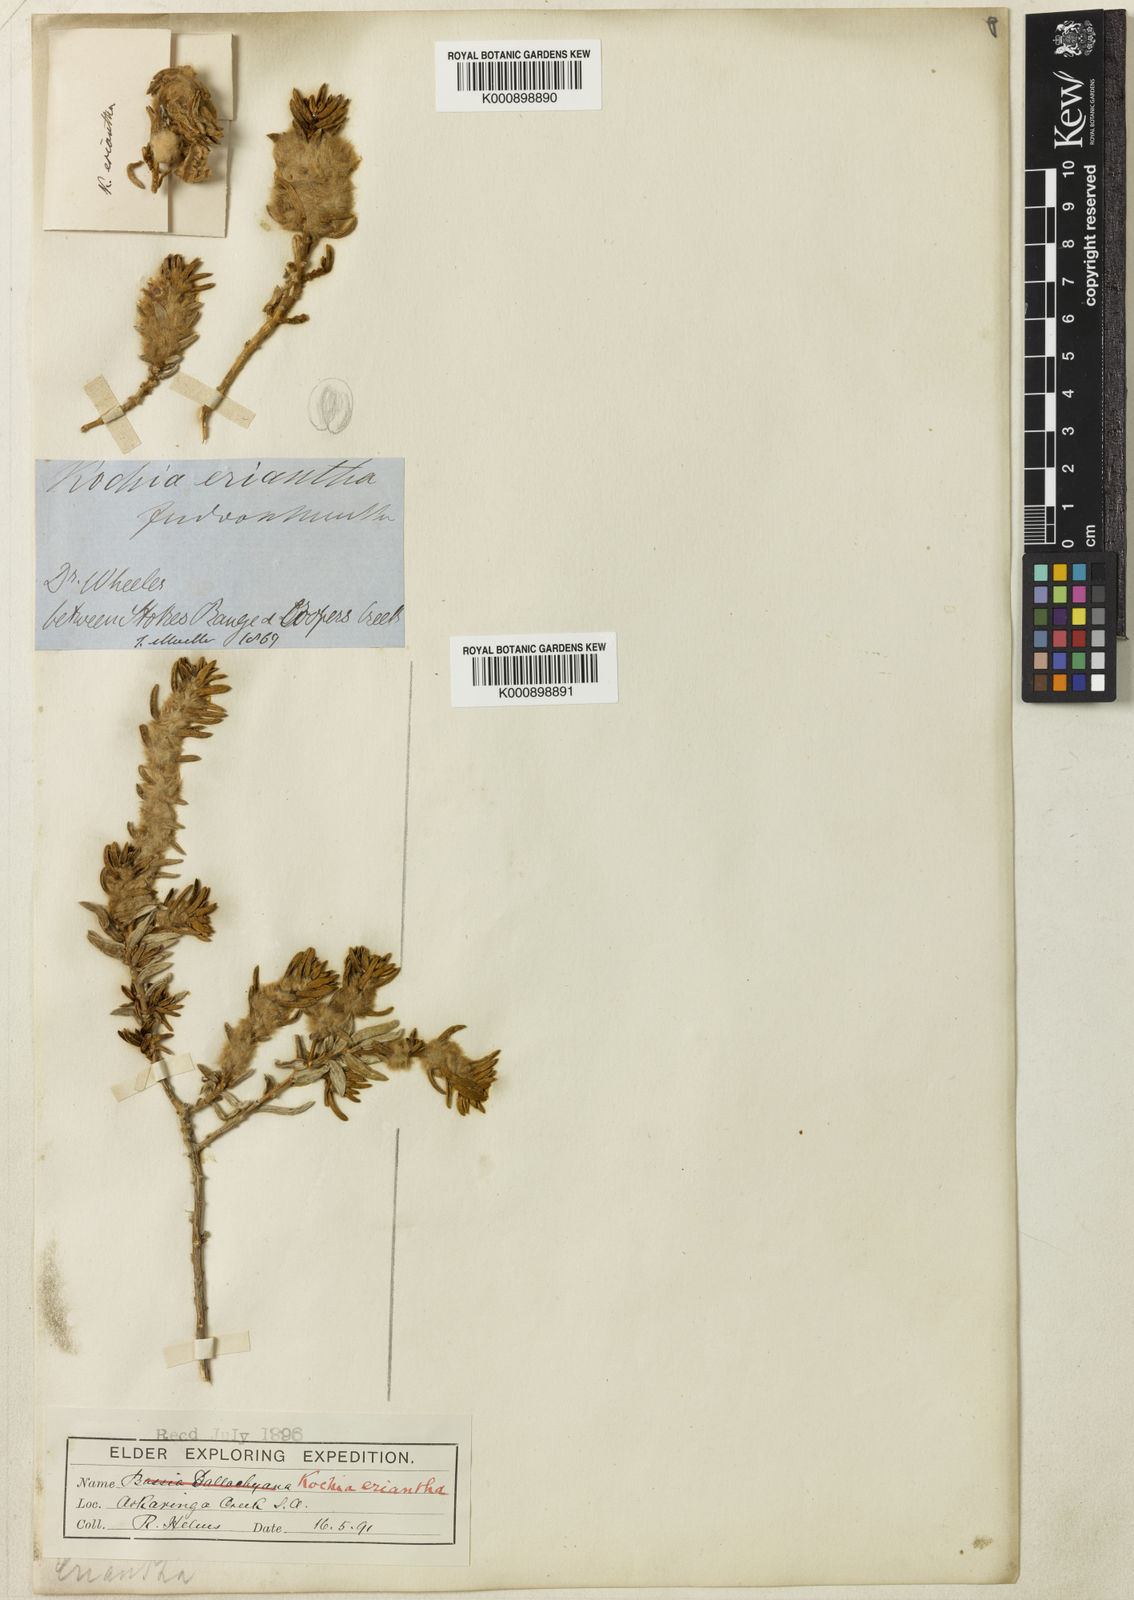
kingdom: Plantae
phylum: Tracheophyta
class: Magnoliopsida
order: Caryophyllales
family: Amaranthaceae
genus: Maireana
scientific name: Maireana eriantha
